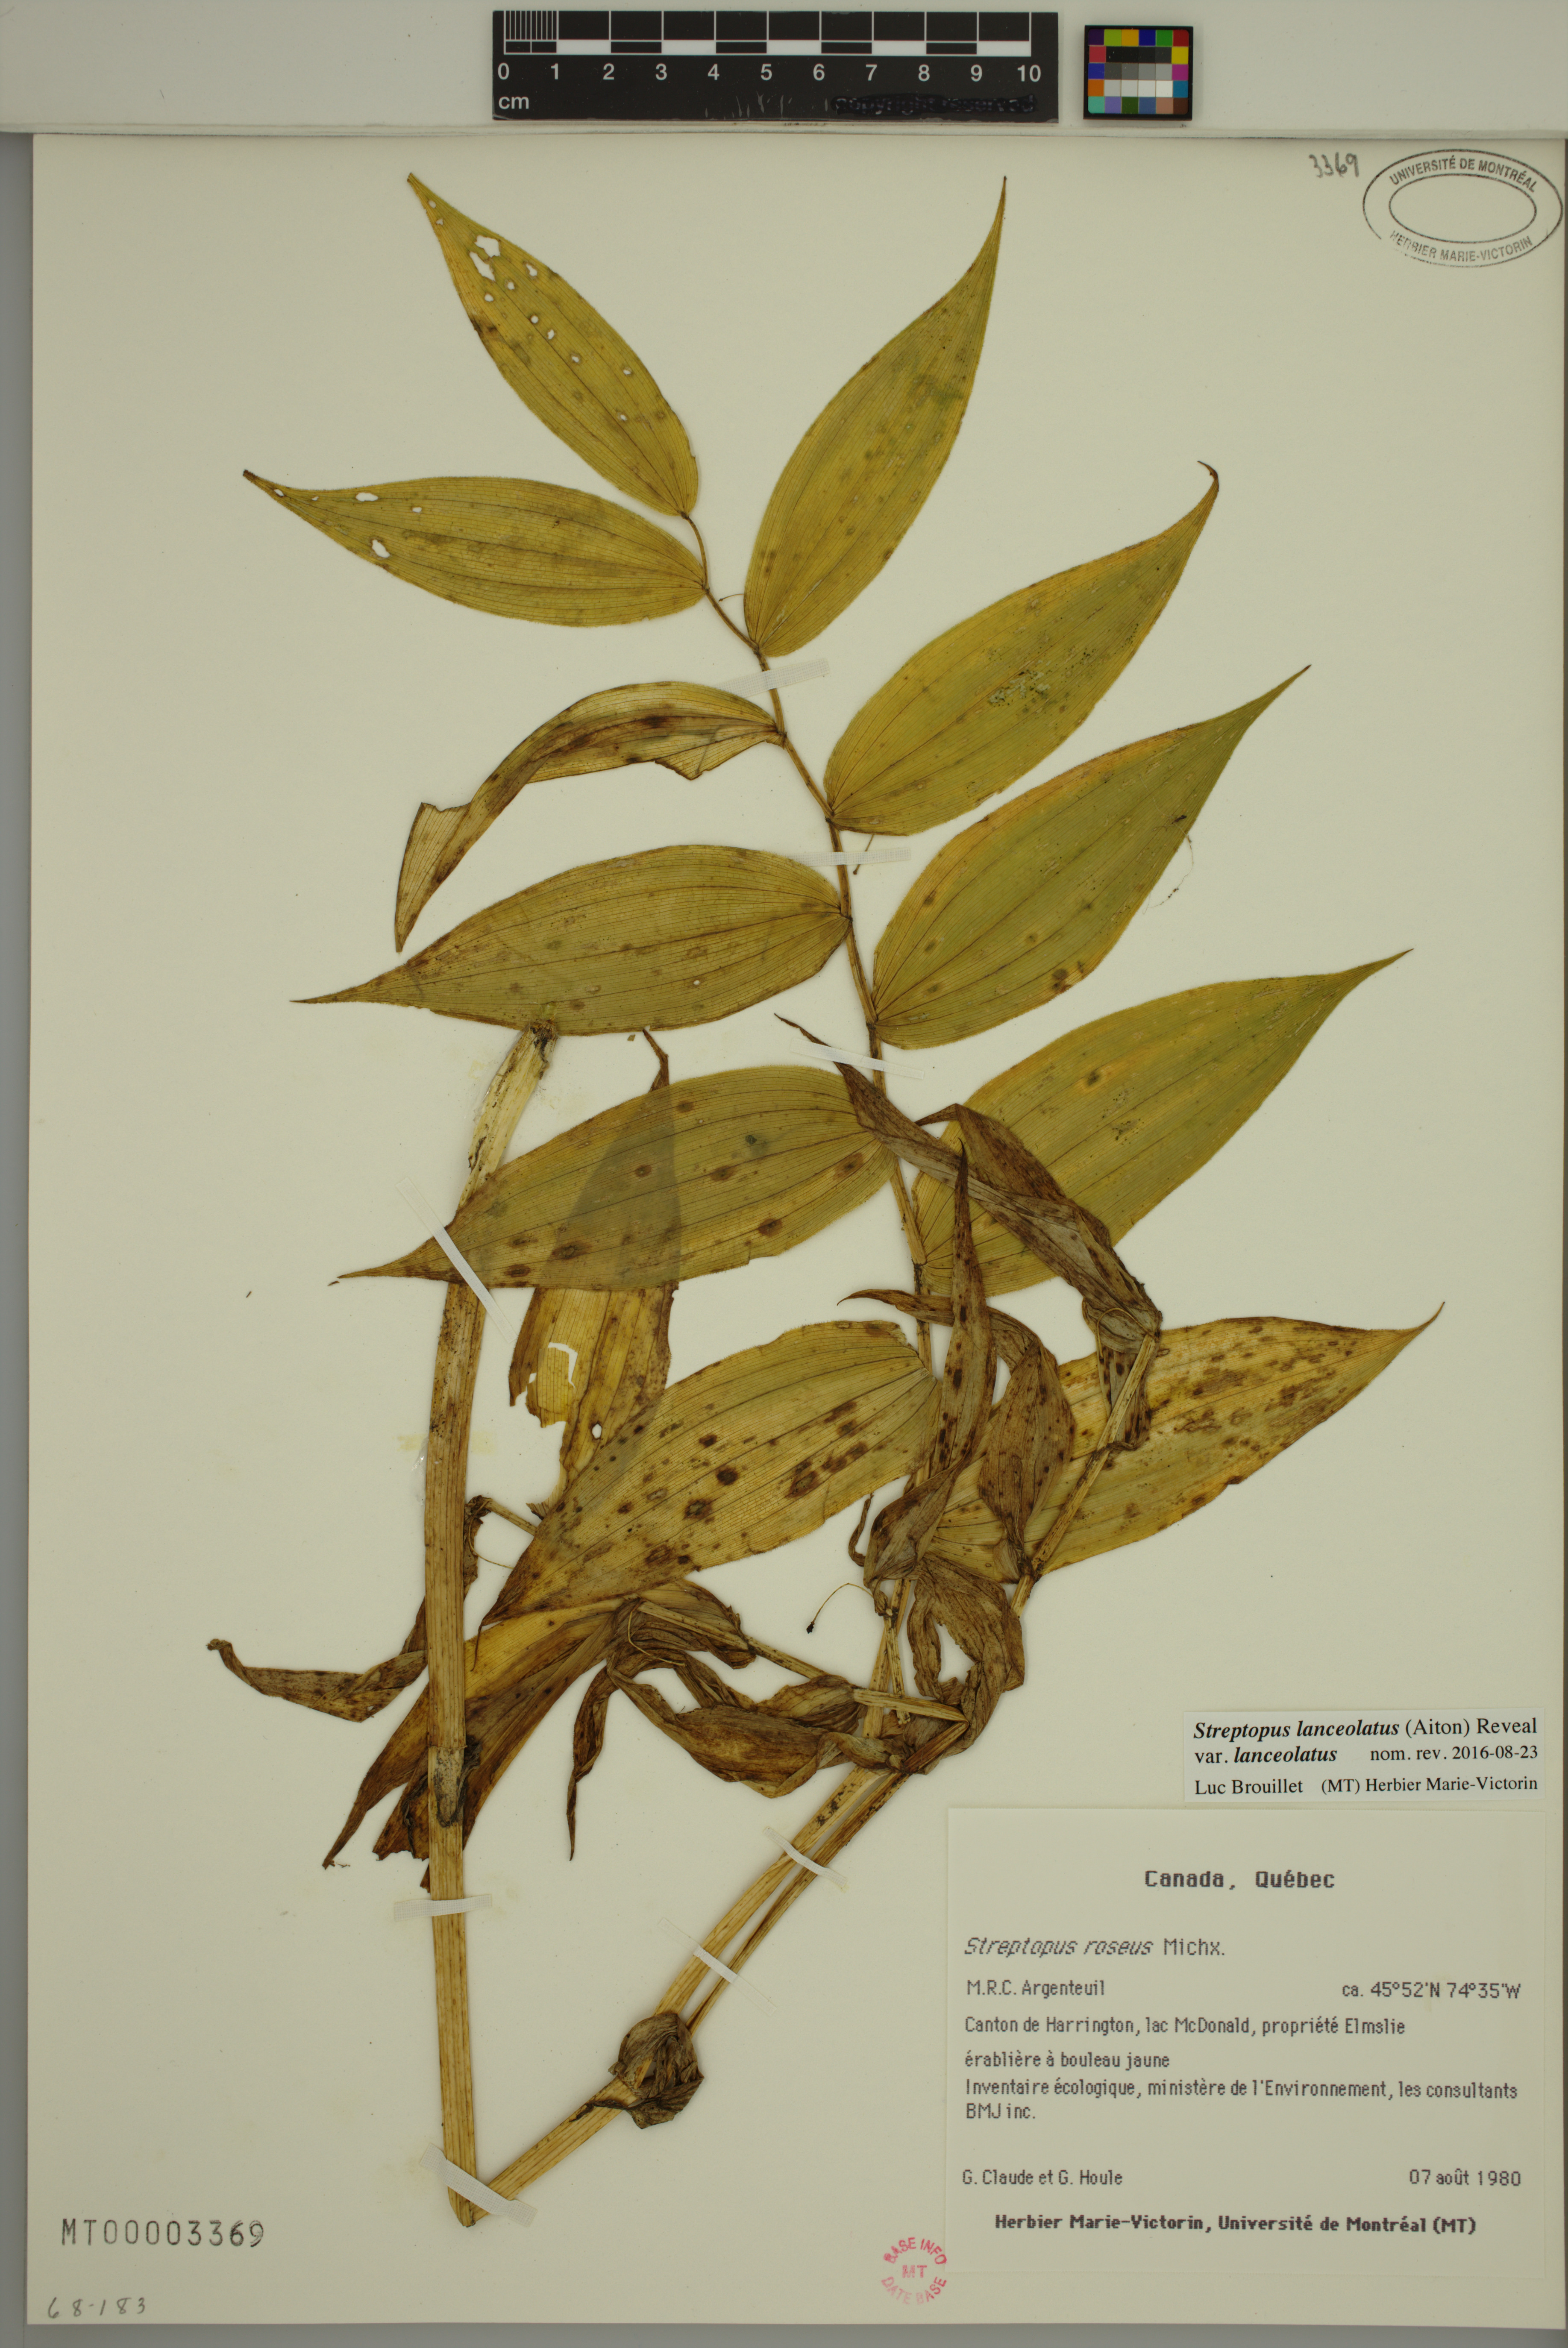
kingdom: Plantae
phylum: Tracheophyta
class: Liliopsida
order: Liliales
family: Liliaceae
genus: Streptopus
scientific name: Streptopus lanceolatus
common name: Rose mandarin
